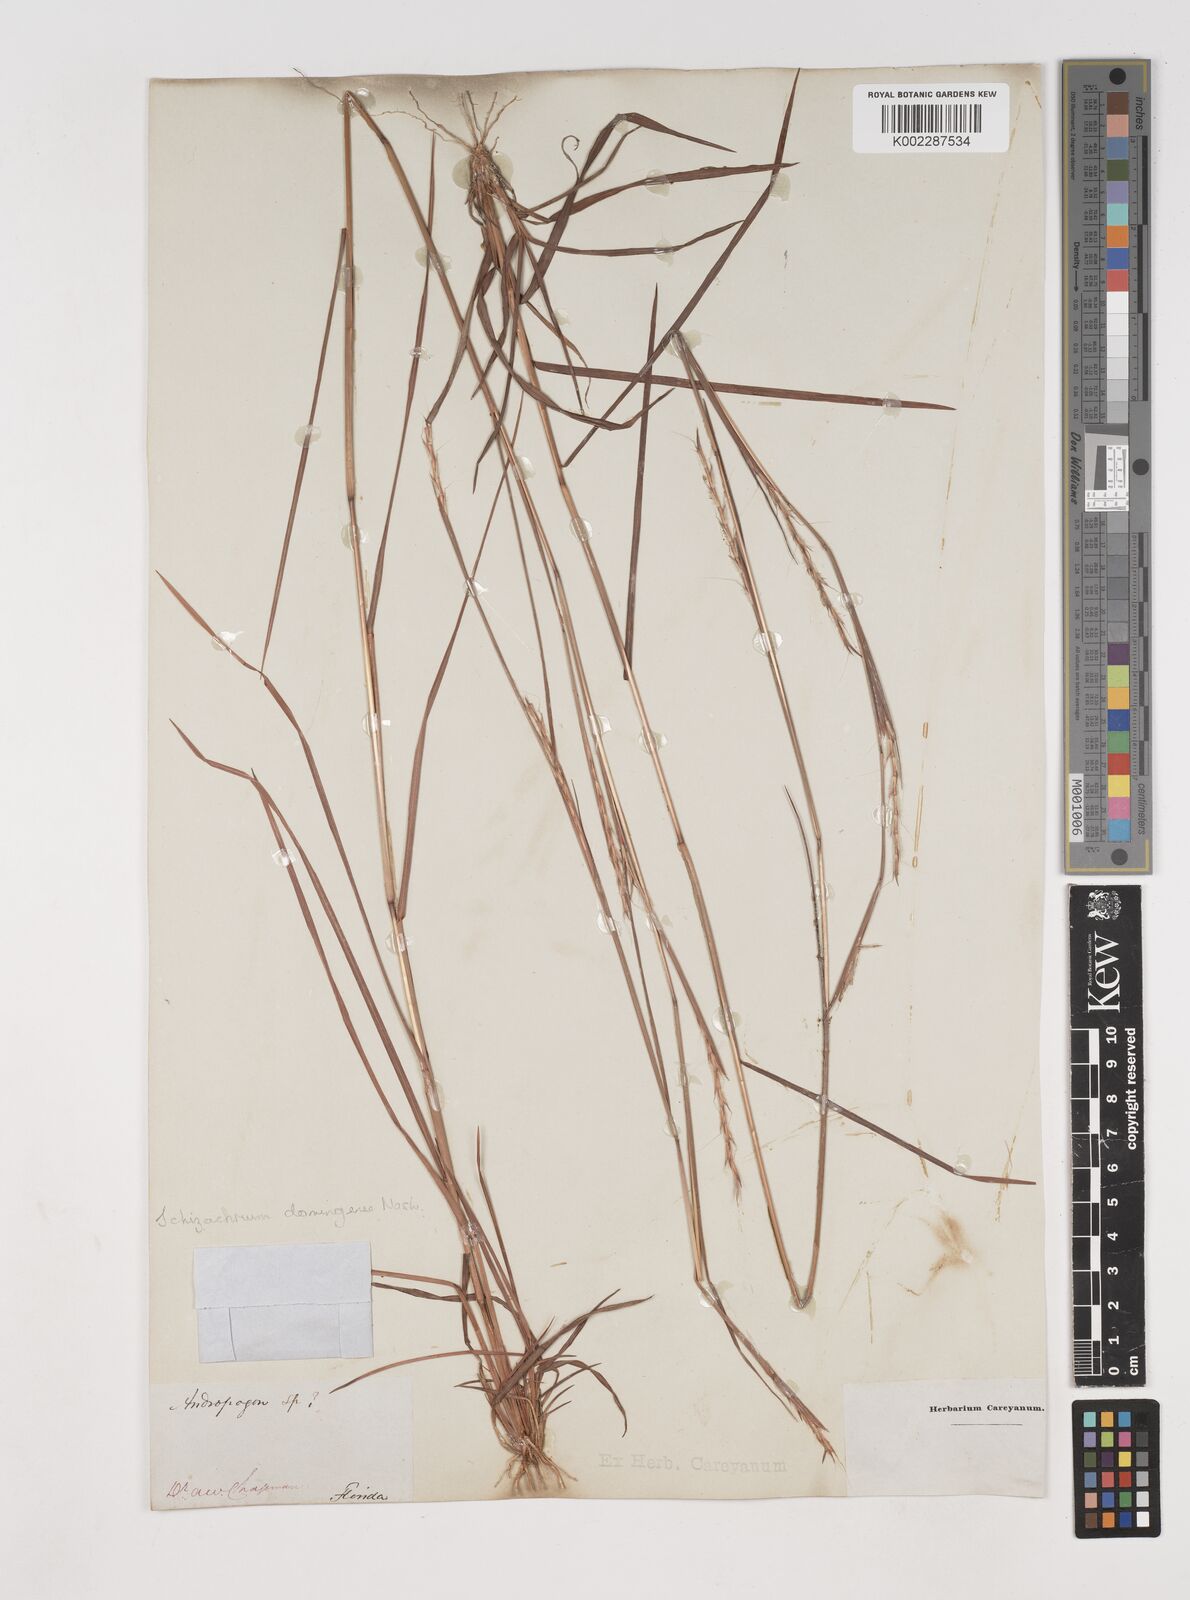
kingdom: Plantae
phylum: Tracheophyta
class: Liliopsida
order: Poales
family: Poaceae
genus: Schizachyrium
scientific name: Schizachyrium sanguineum
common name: Crimson bluestem
